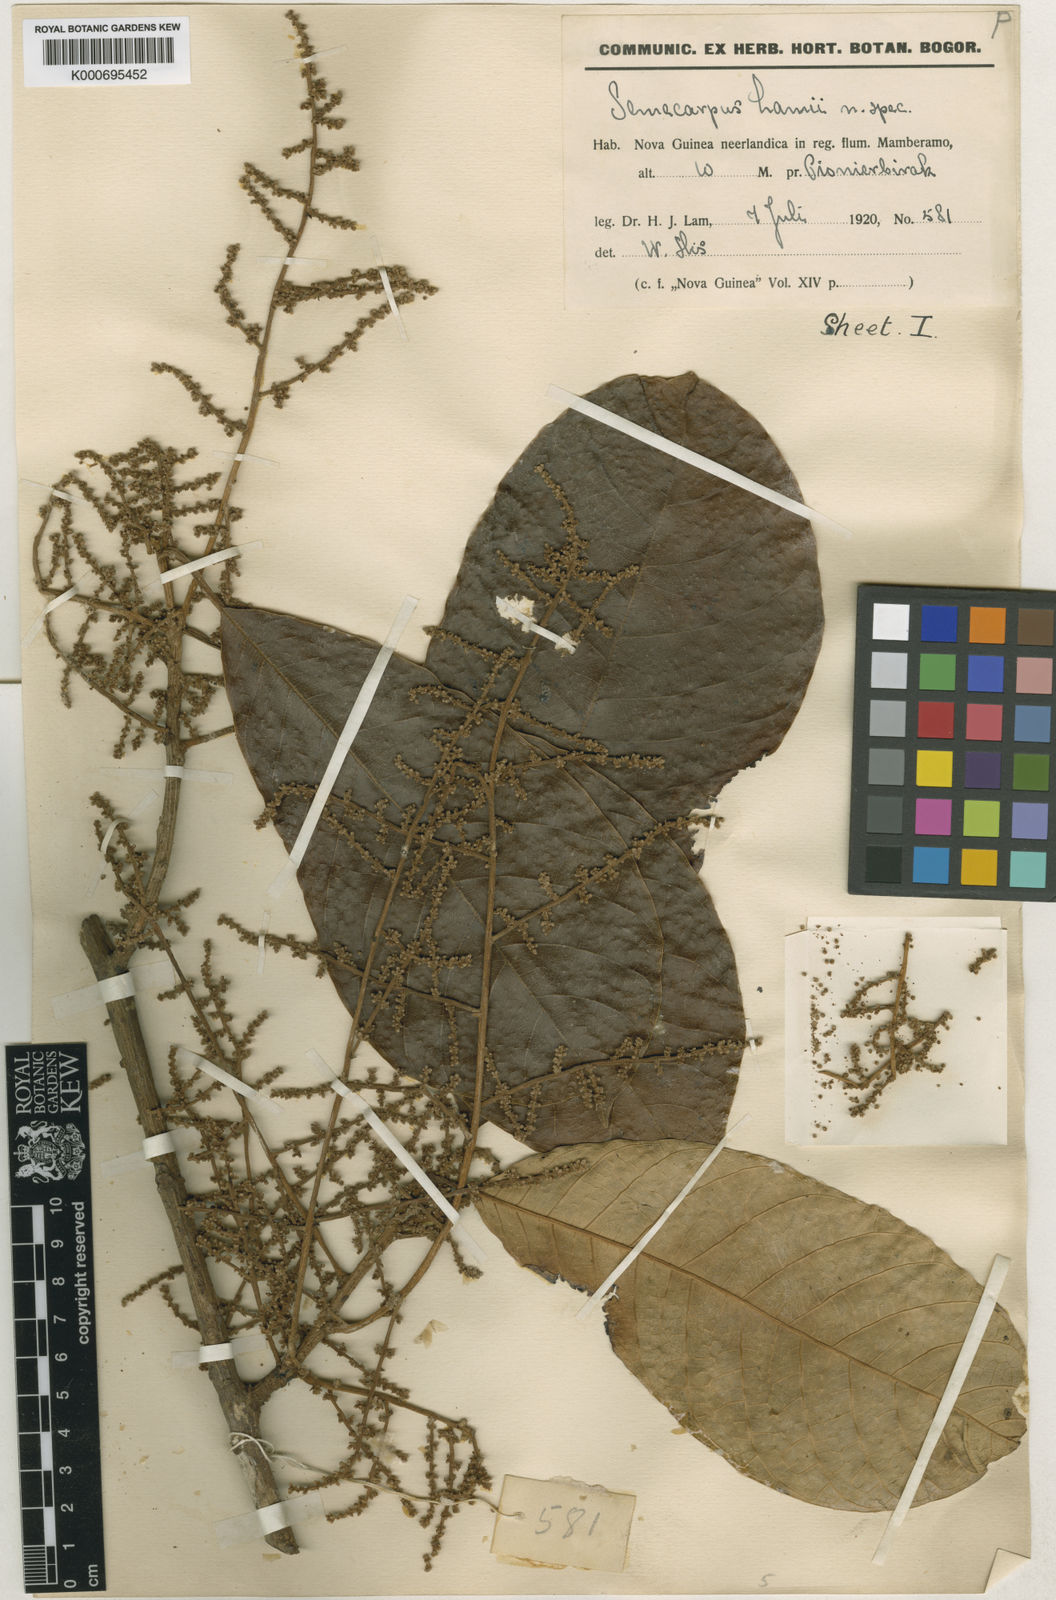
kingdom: Plantae
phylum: Tracheophyta
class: Magnoliopsida
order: Sapindales
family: Anacardiaceae
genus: Semecarpus
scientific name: Semecarpus lamii
